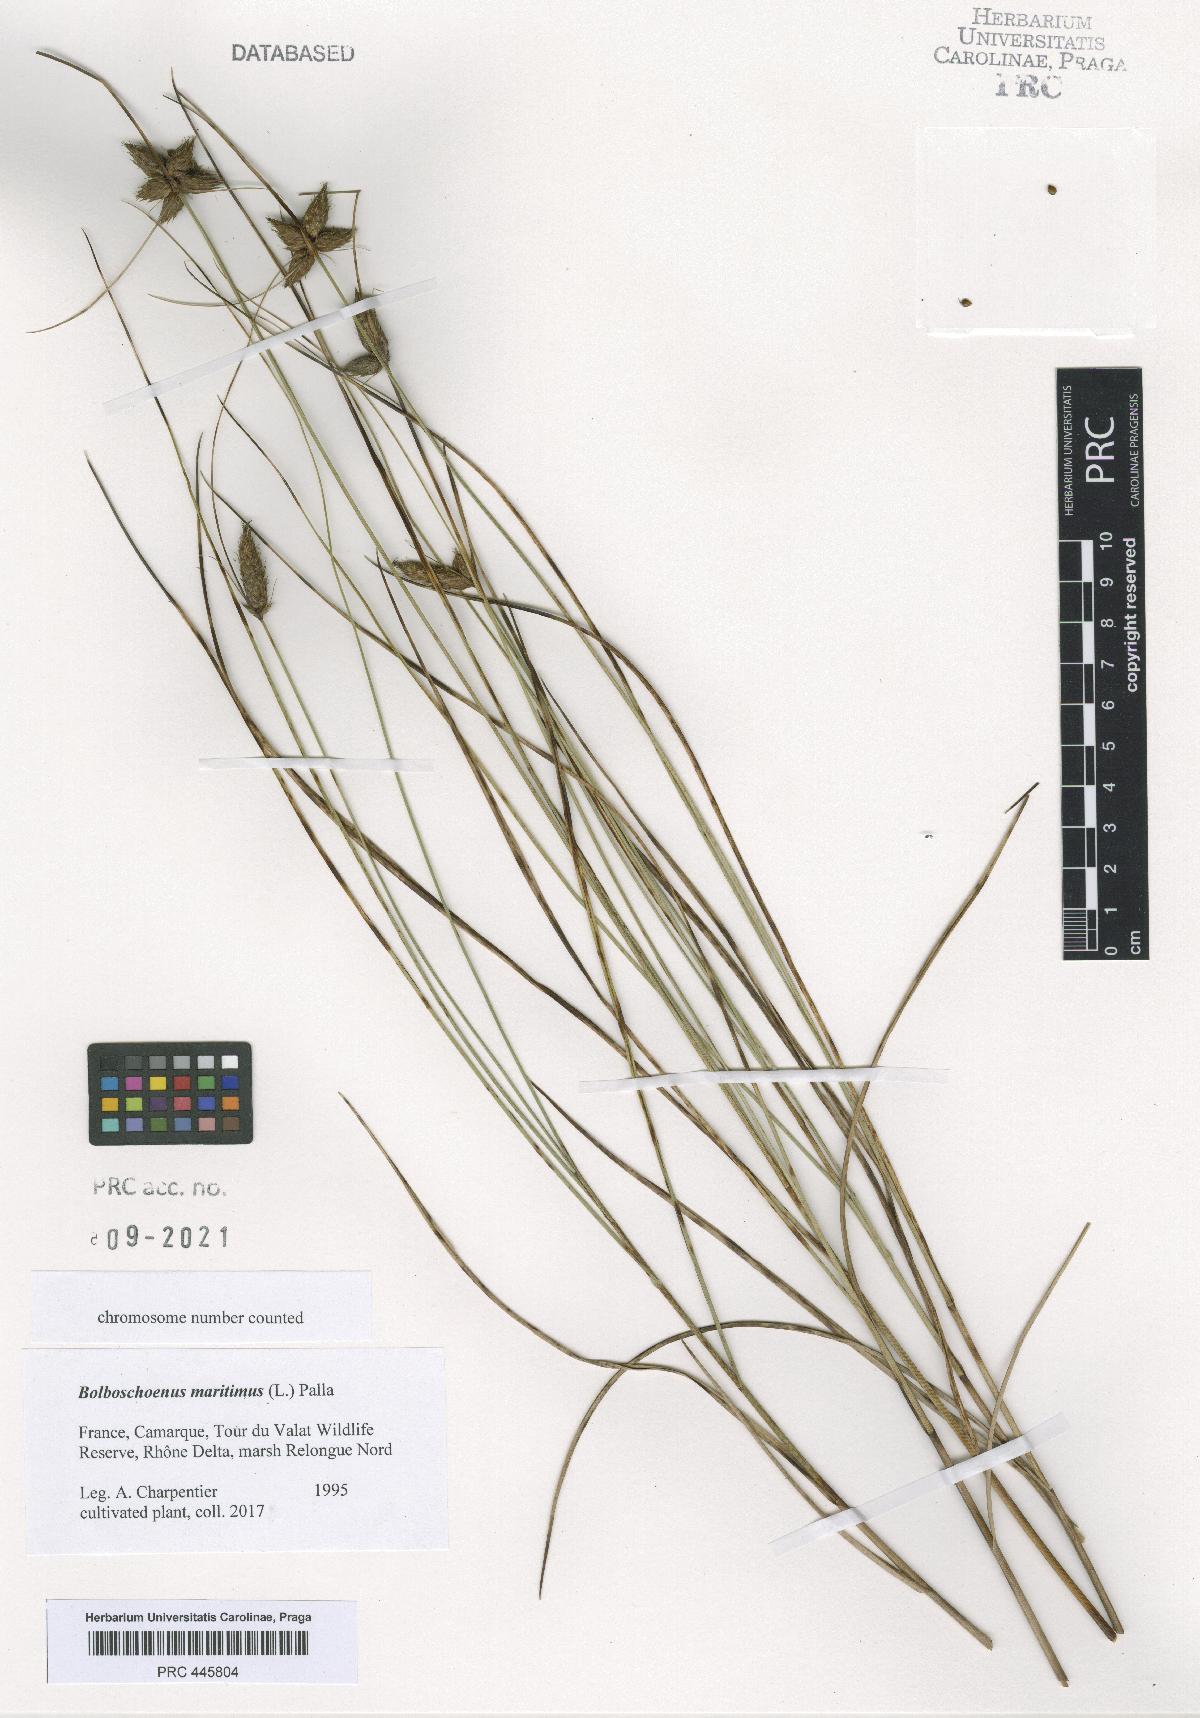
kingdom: Plantae
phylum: Tracheophyta
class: Liliopsida
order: Poales
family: Cyperaceae
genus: Bolboschoenus
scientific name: Bolboschoenus maritimus
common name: Sea club-rush
